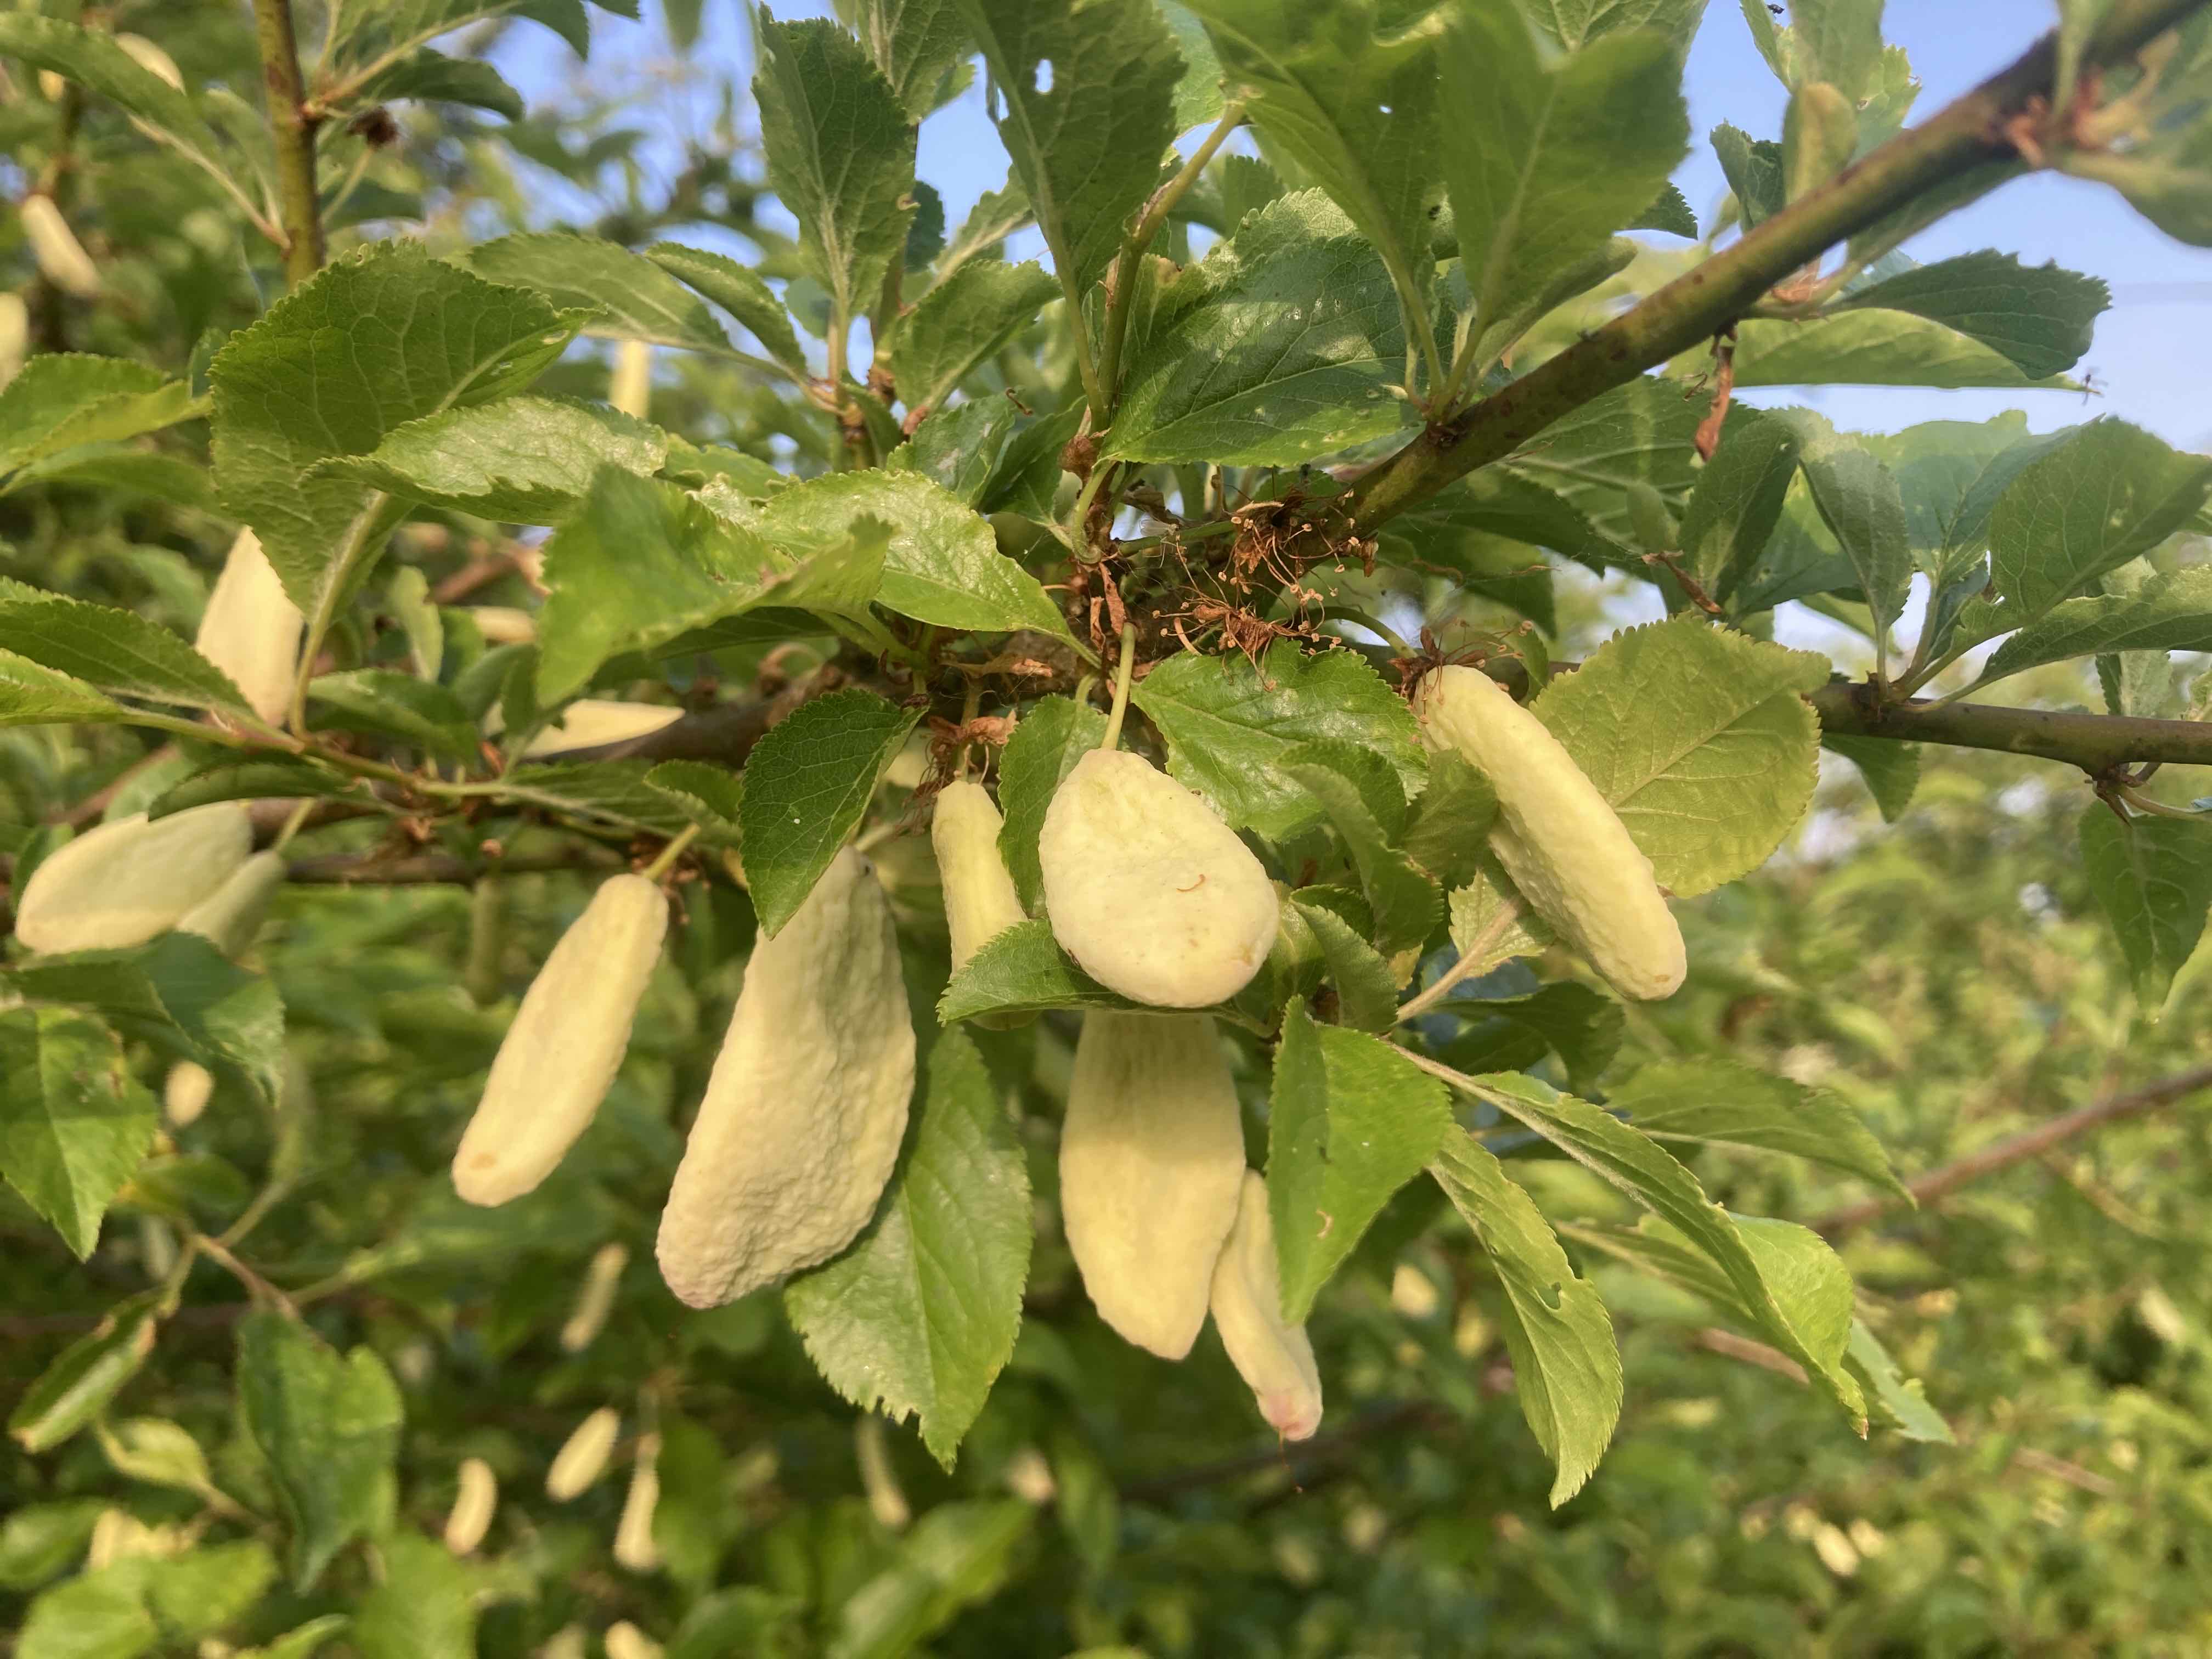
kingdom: Fungi
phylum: Ascomycota
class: Taphrinomycetes
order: Taphrinales
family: Taphrinaceae
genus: Taphrina
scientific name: Taphrina pruni
